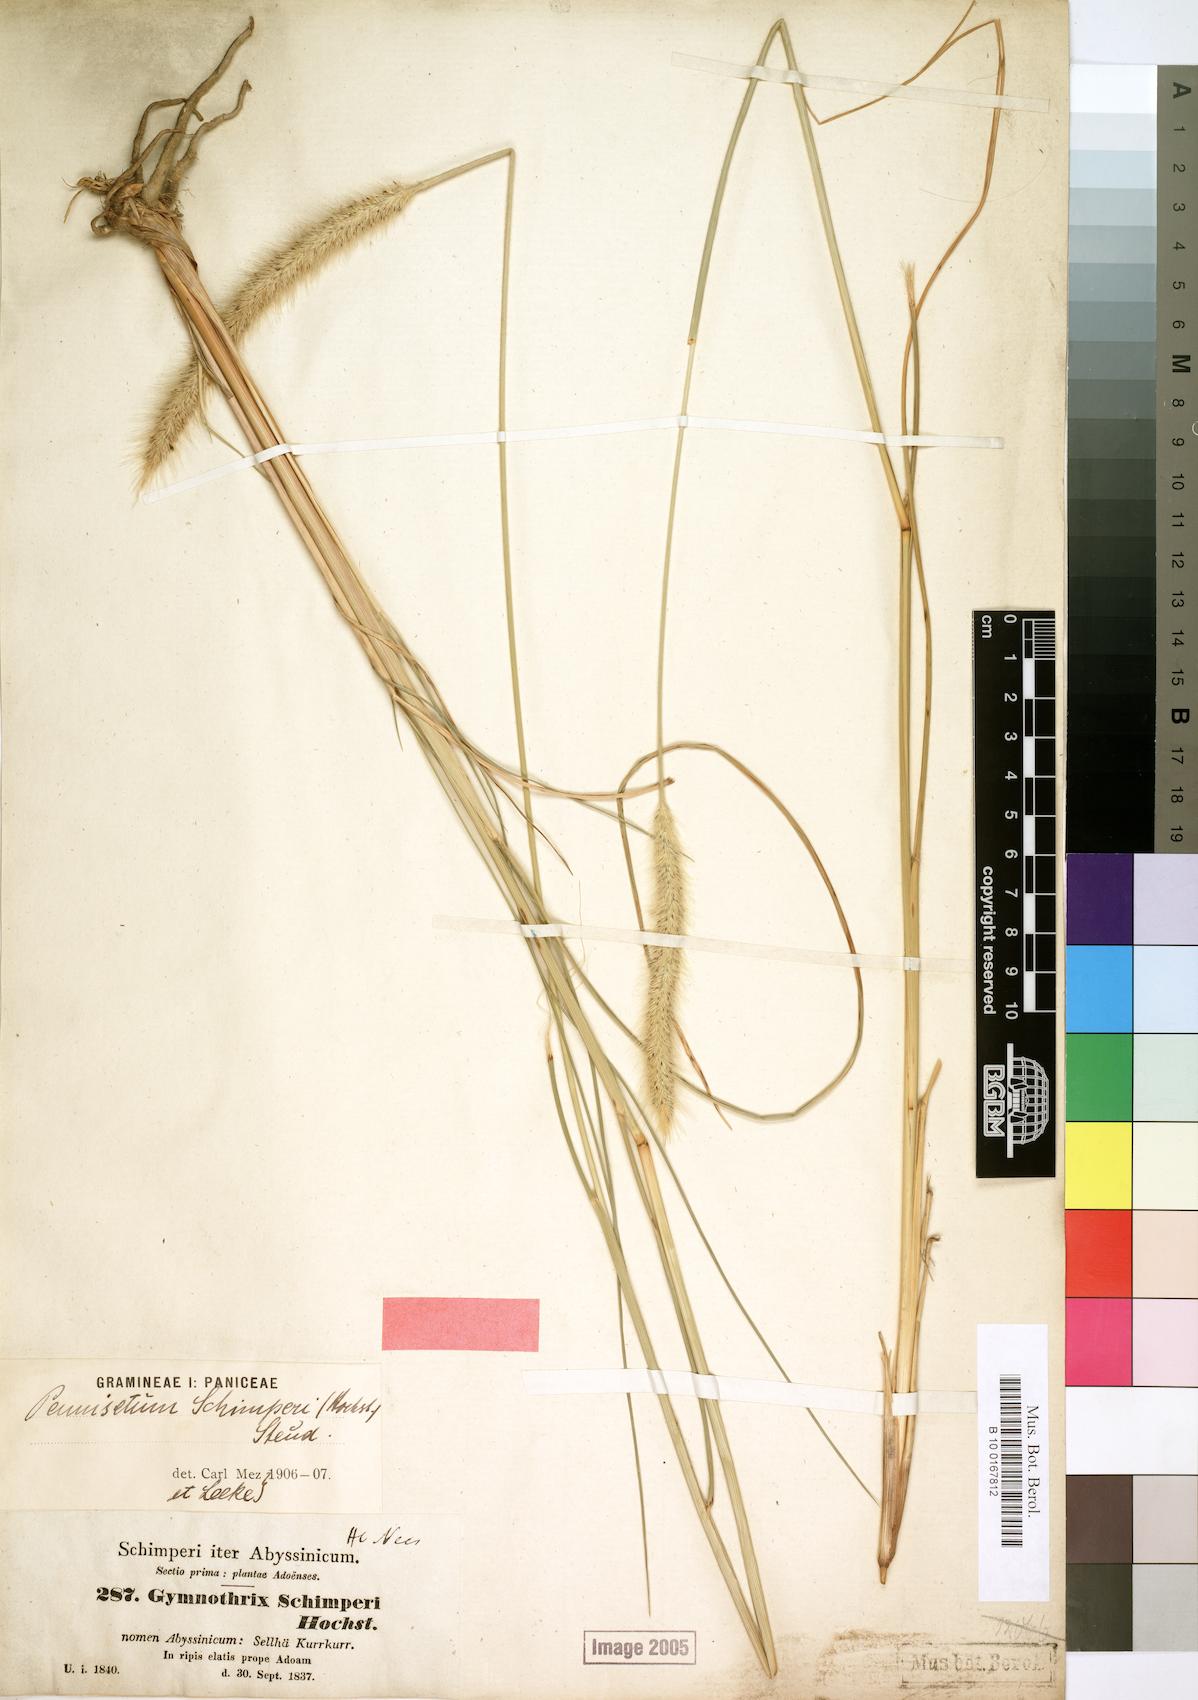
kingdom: Plantae
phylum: Tracheophyta
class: Liliopsida
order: Poales
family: Poaceae
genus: Cenchrus
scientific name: Cenchrus sphacelatus
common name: Bulgras
